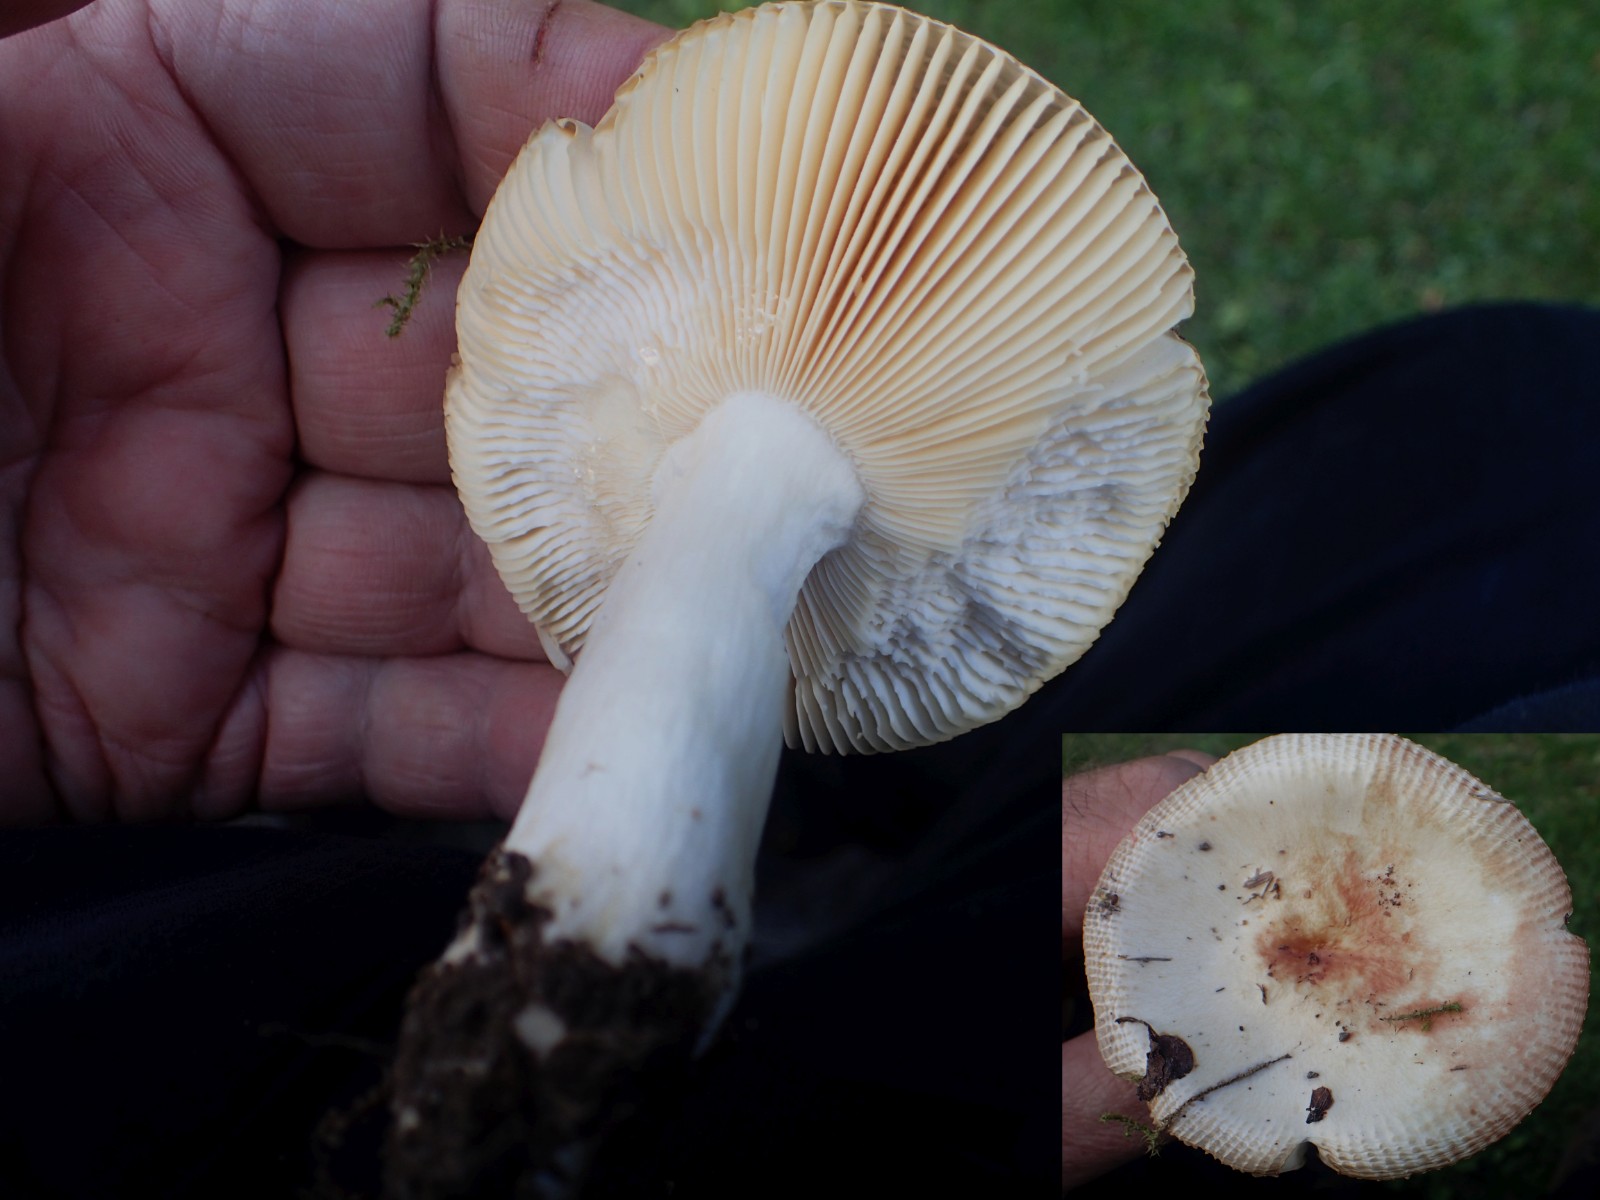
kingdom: Fungi
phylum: Basidiomycota
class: Agaricomycetes
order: Russulales
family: Russulaceae
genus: Russula
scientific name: Russula recondita
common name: mild kam-skørhat
